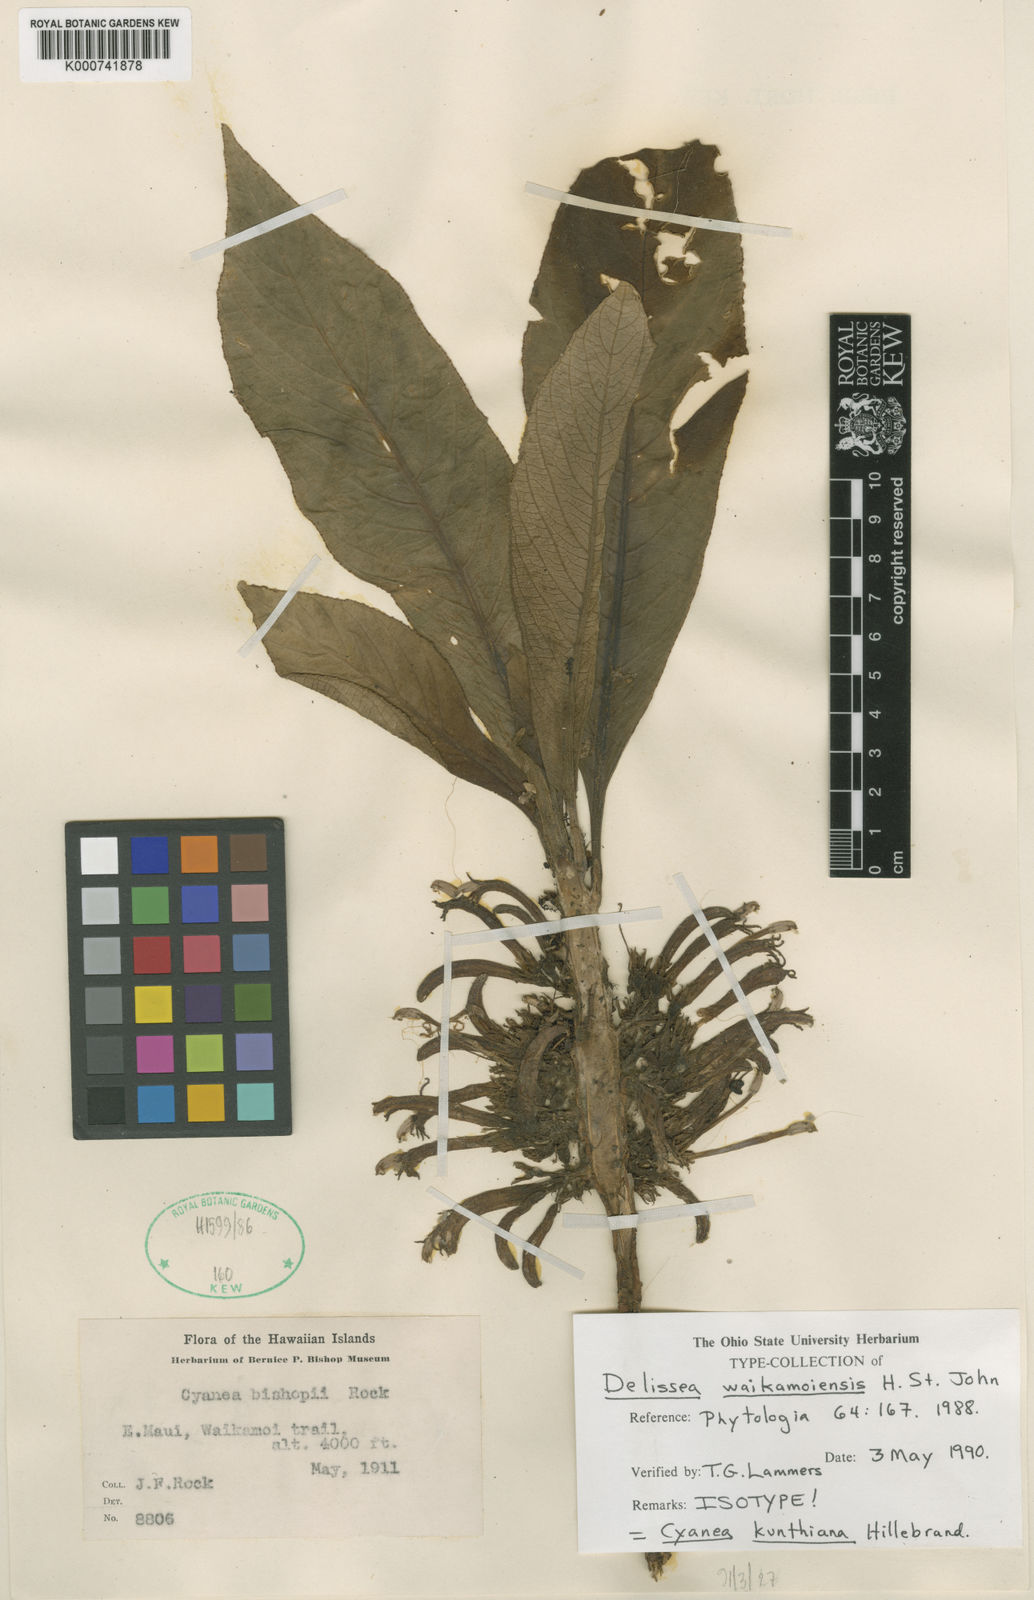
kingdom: Plantae
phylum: Tracheophyta
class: Magnoliopsida
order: Asterales
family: Campanulaceae
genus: Cyanea
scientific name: Cyanea kunthiana
